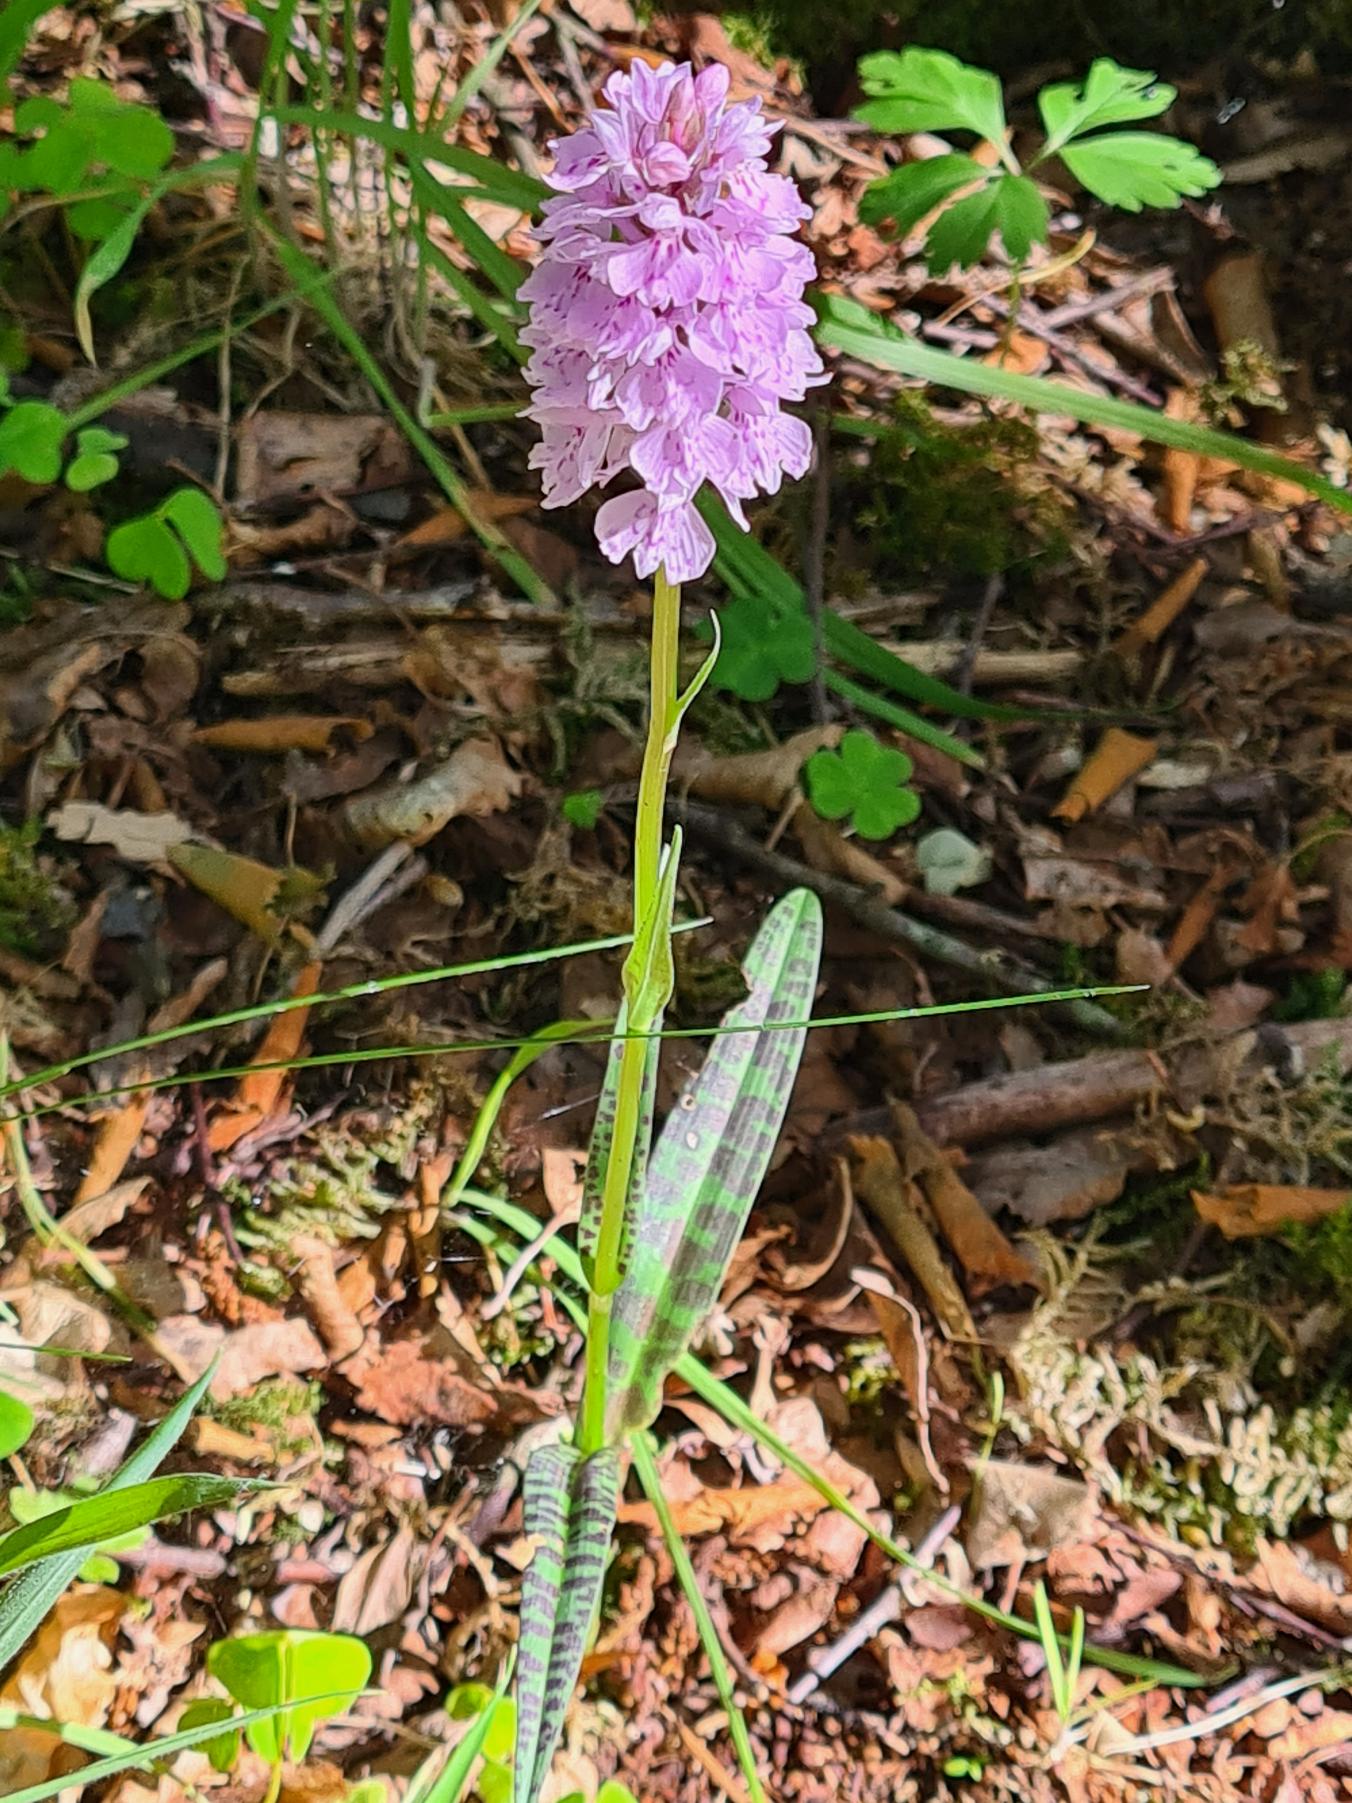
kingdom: Plantae
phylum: Tracheophyta
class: Liliopsida
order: Asparagales
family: Orchidaceae
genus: Dactylorhiza
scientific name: Dactylorhiza maculata
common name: Plettet gøgeurt
